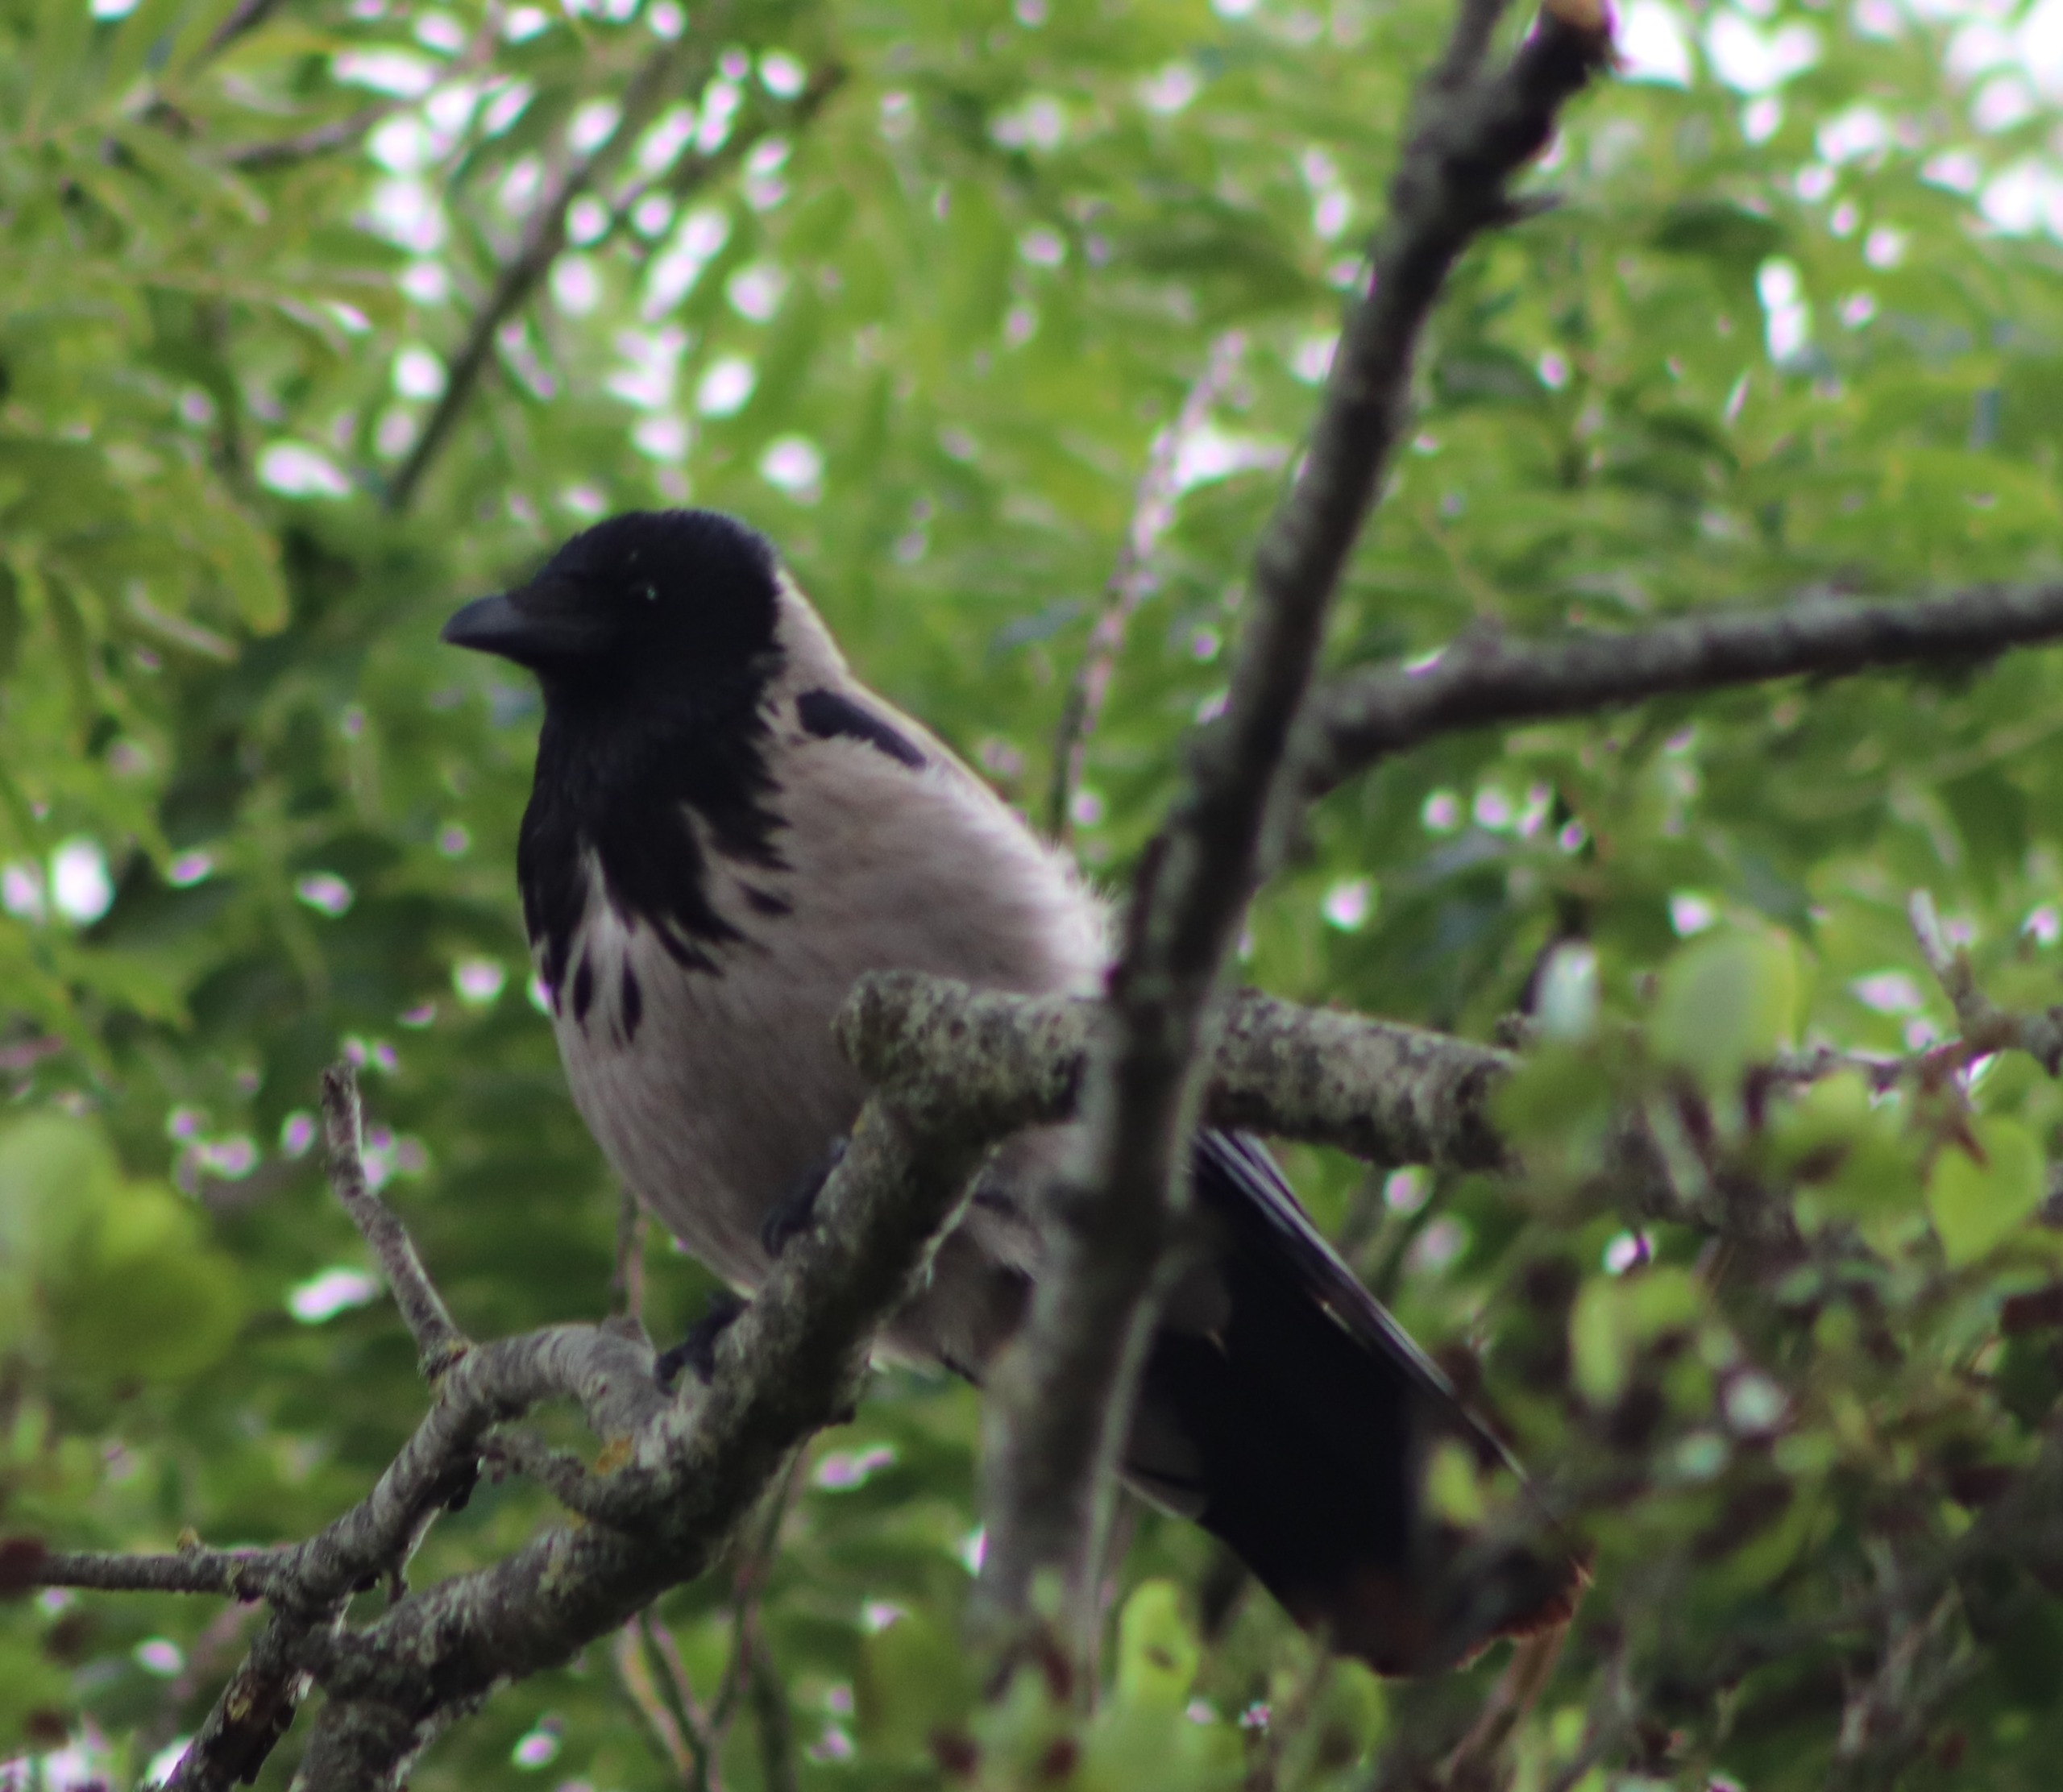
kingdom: Animalia
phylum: Chordata
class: Aves
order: Passeriformes
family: Corvidae
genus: Corvus
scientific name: Corvus cornix
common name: Gråkrage
